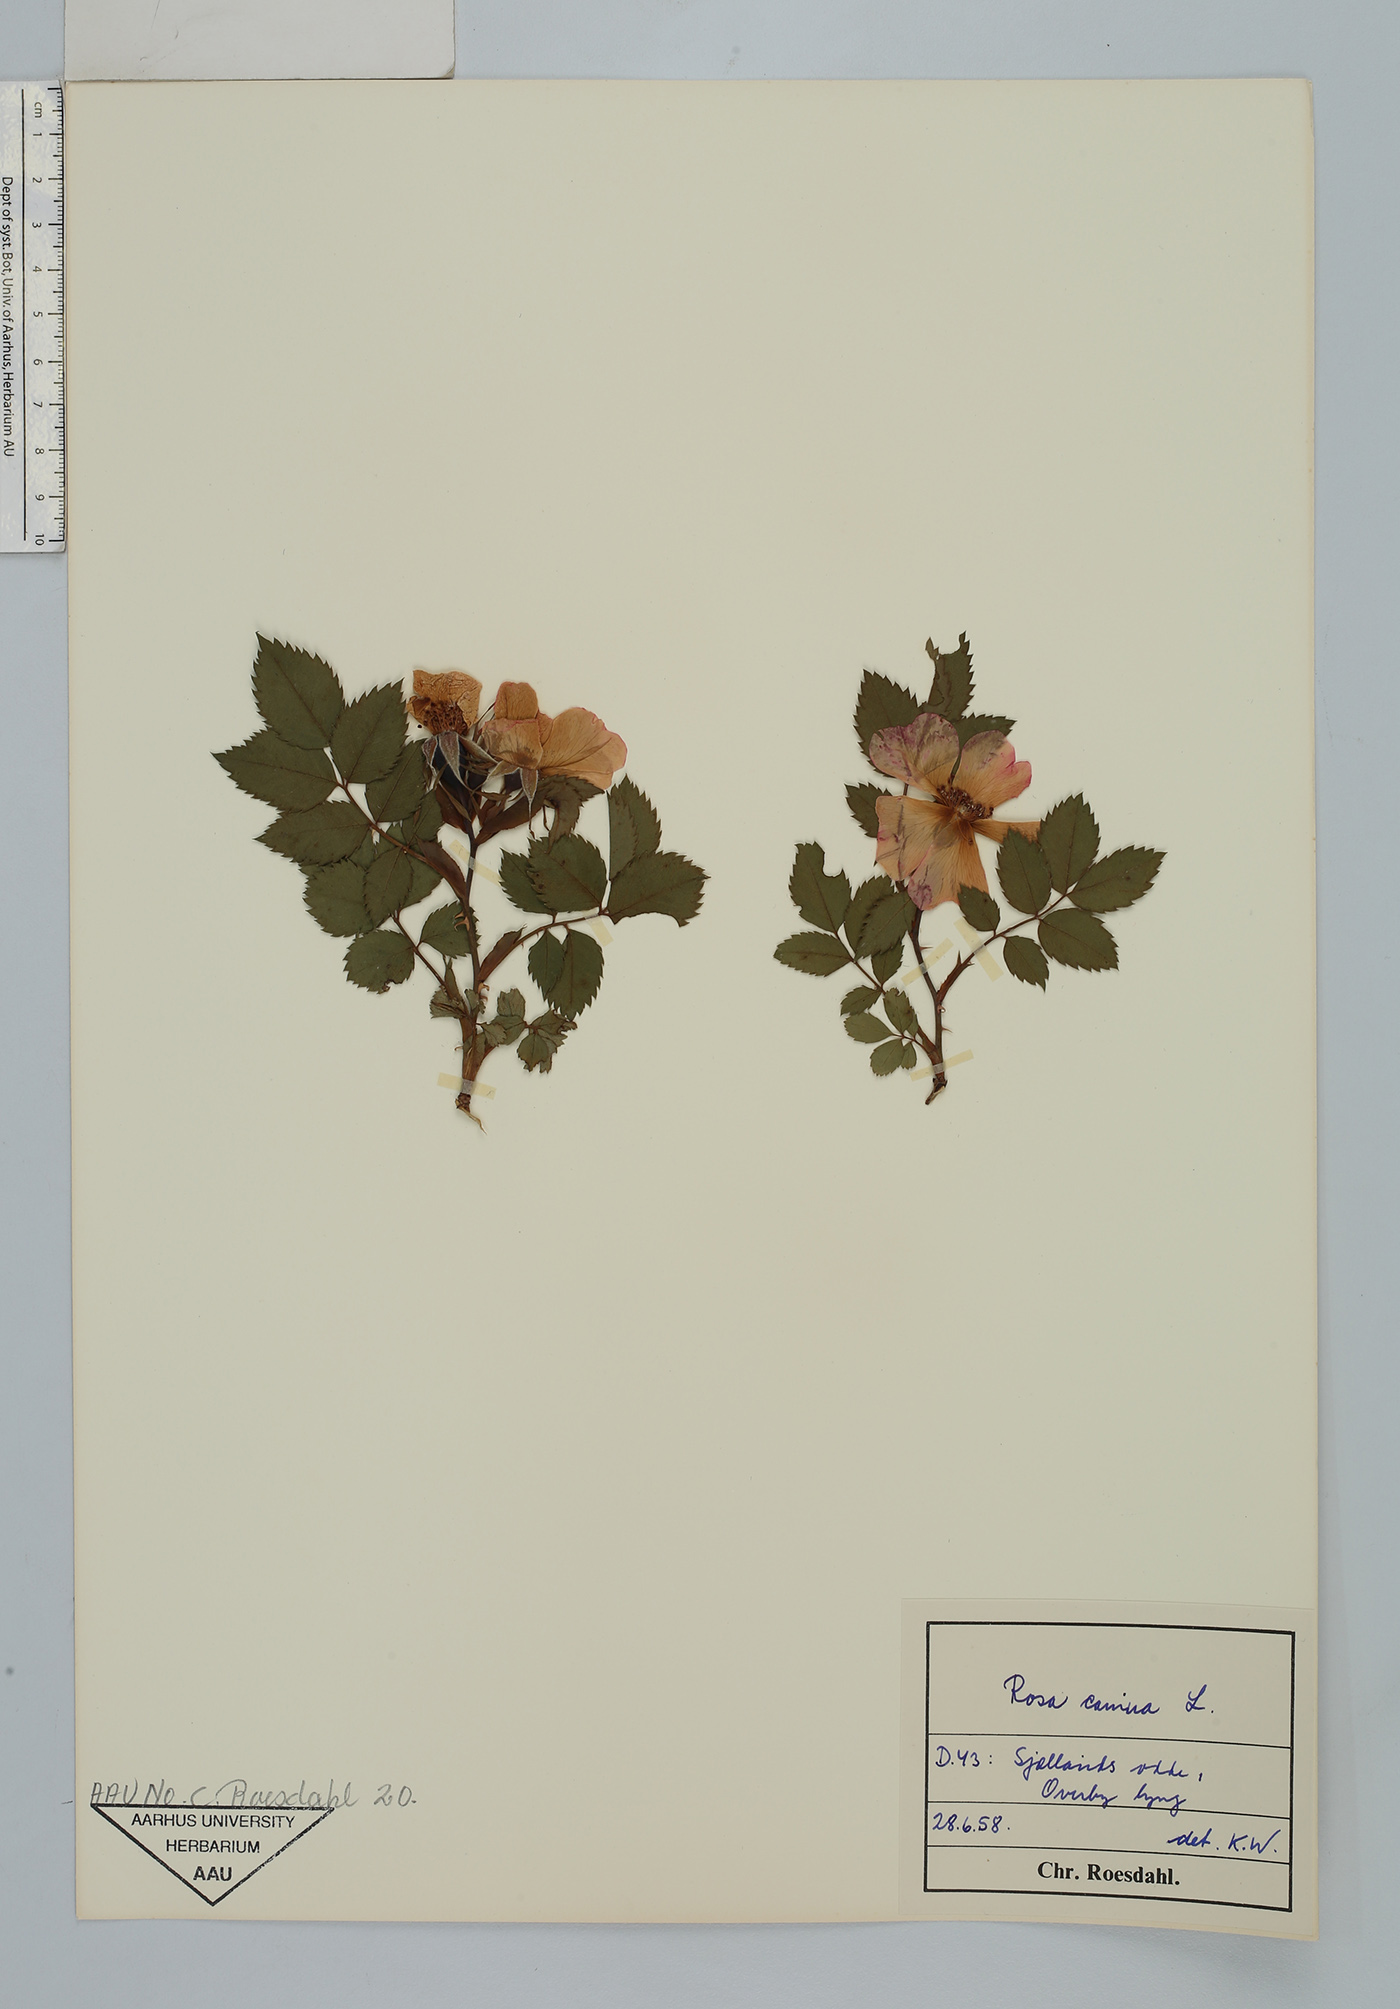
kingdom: Plantae
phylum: Tracheophyta
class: Magnoliopsida
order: Rosales
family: Rosaceae
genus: Rosa
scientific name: Rosa canina
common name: Dog rose
